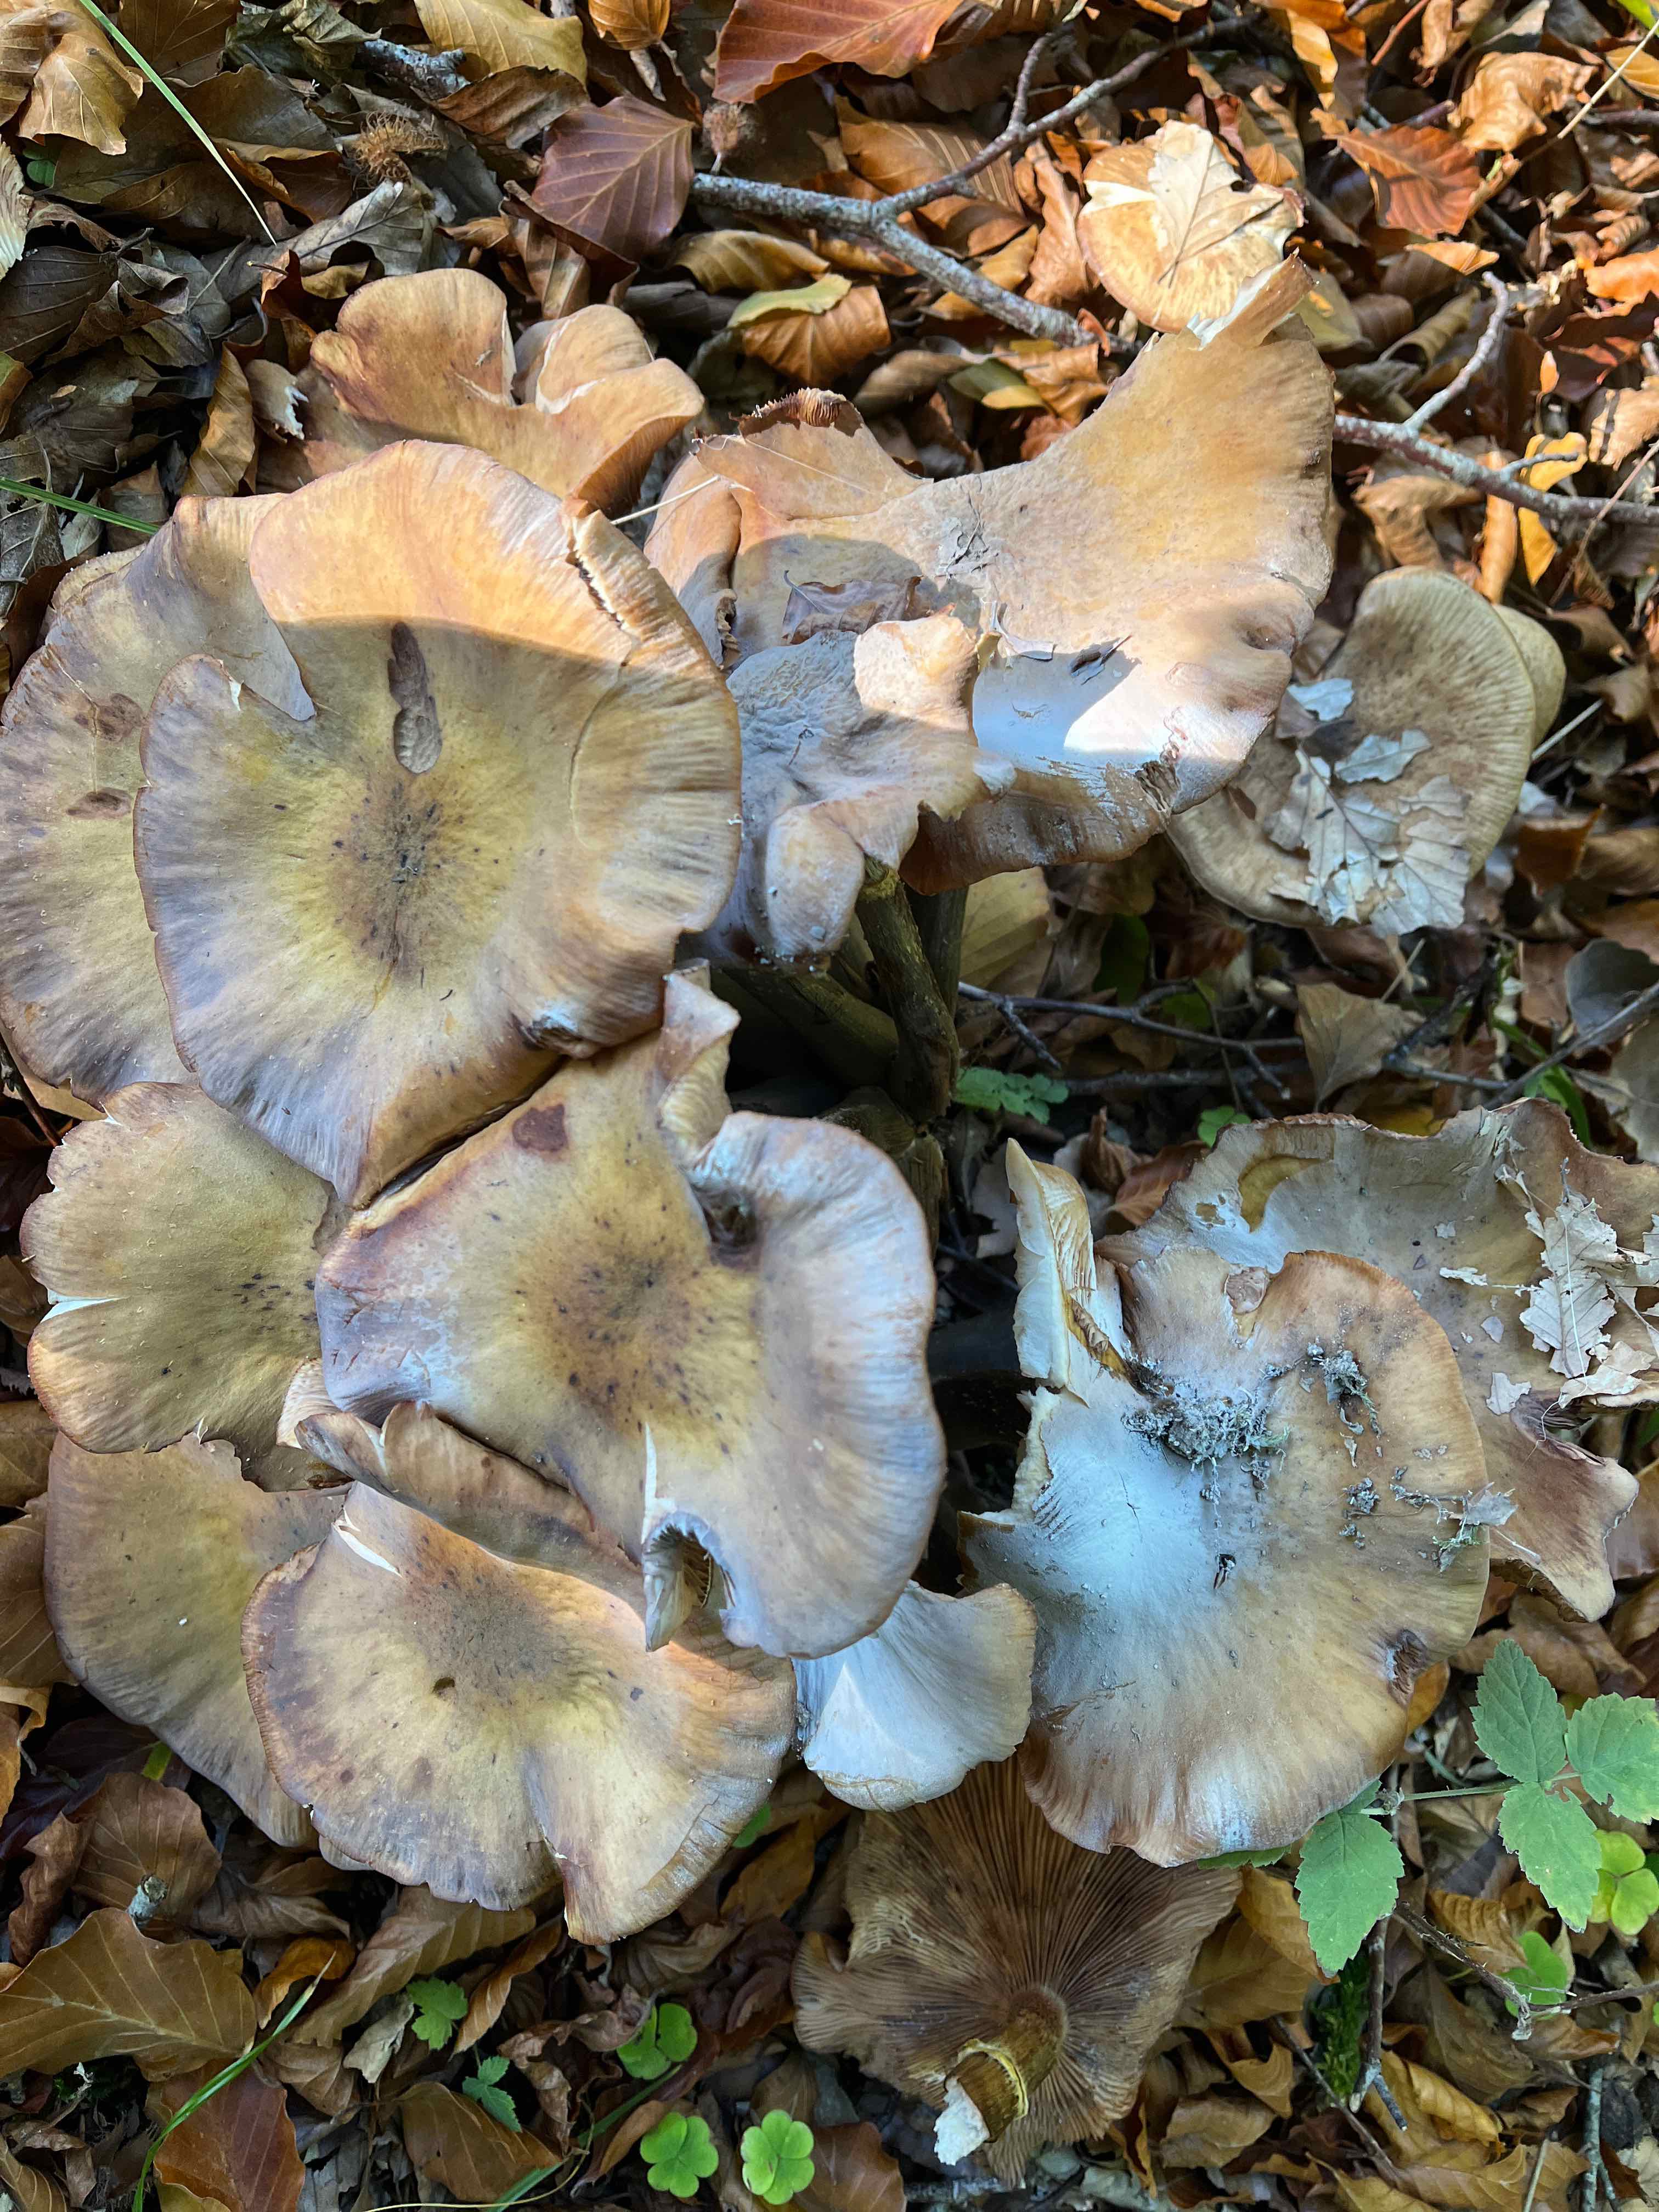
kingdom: Fungi
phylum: Basidiomycota
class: Agaricomycetes
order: Agaricales
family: Physalacriaceae
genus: Armillaria
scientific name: Armillaria
